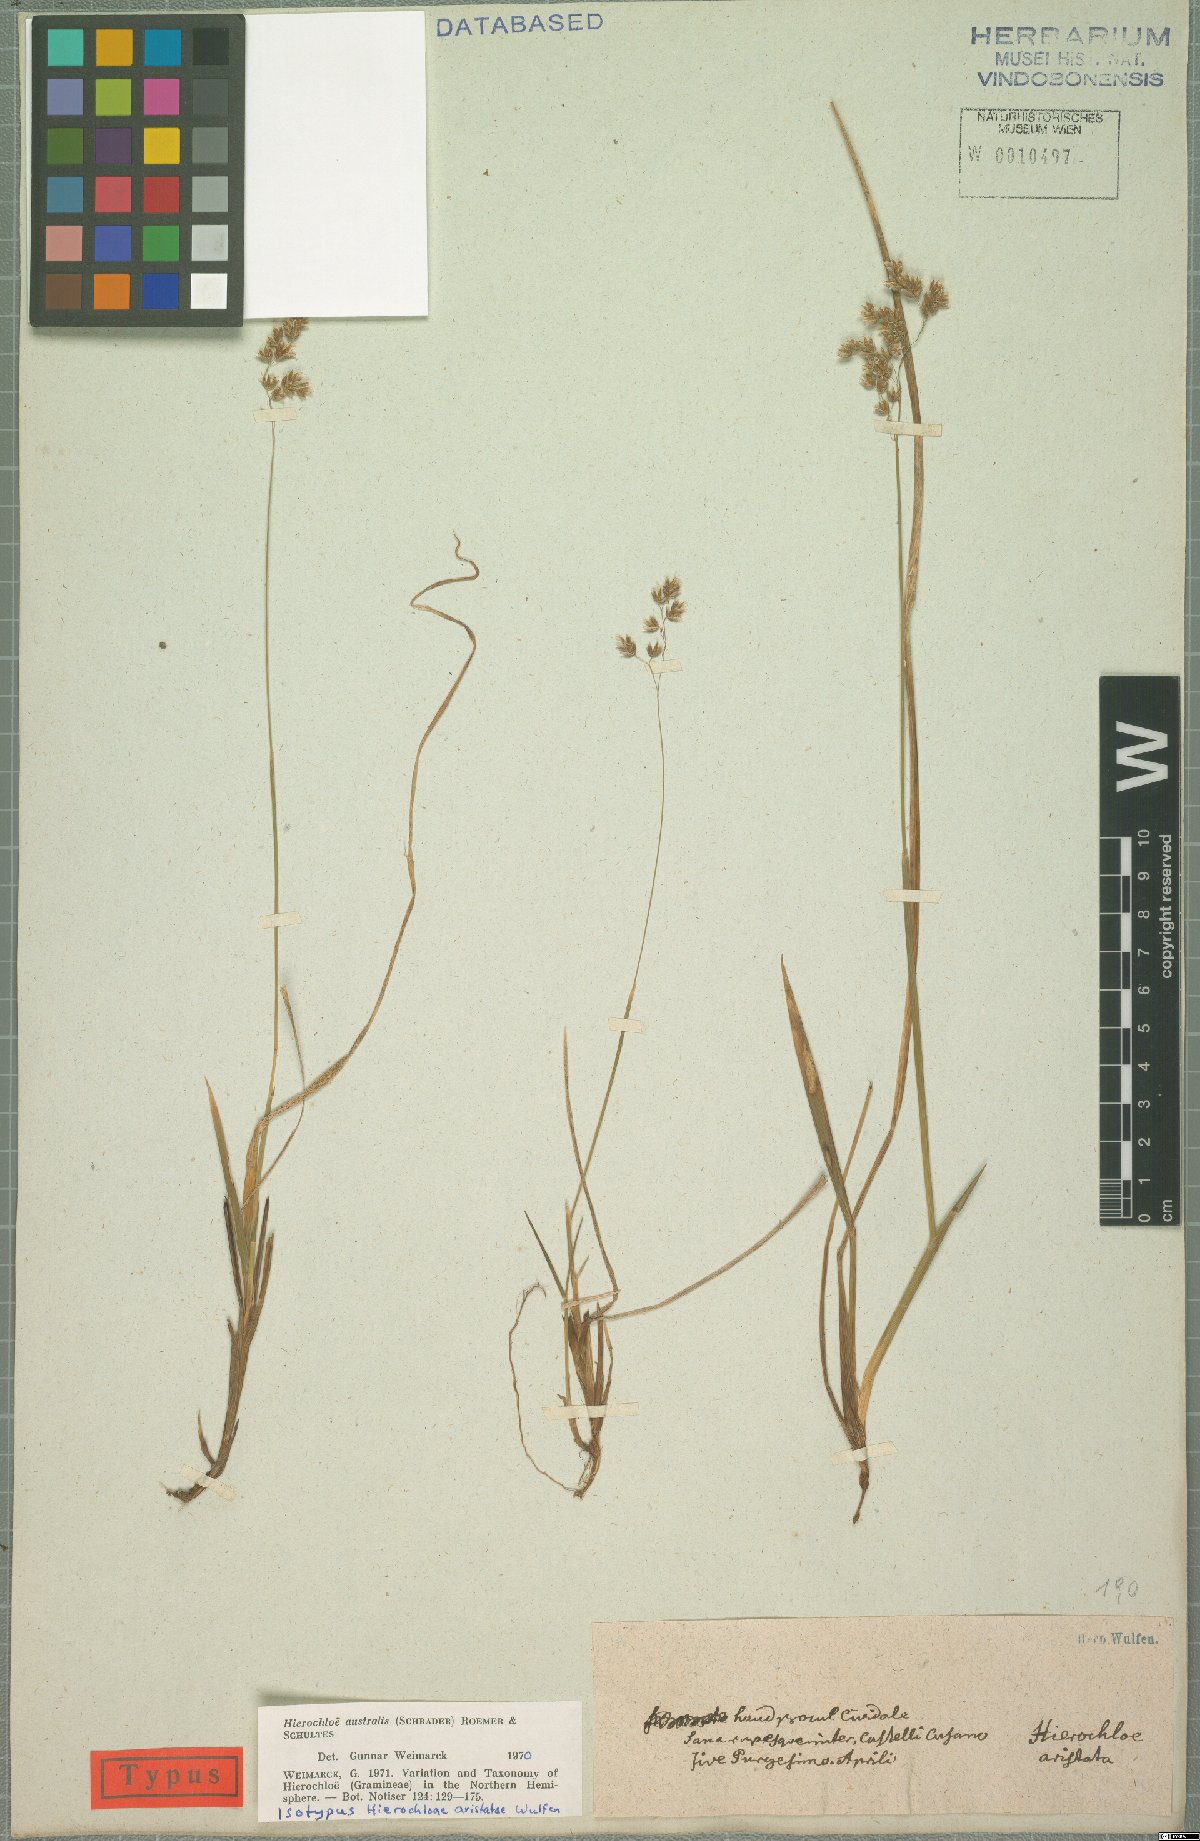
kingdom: Plantae
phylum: Tracheophyta
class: Liliopsida
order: Poales
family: Poaceae
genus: Anthoxanthum
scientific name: Anthoxanthum australe
